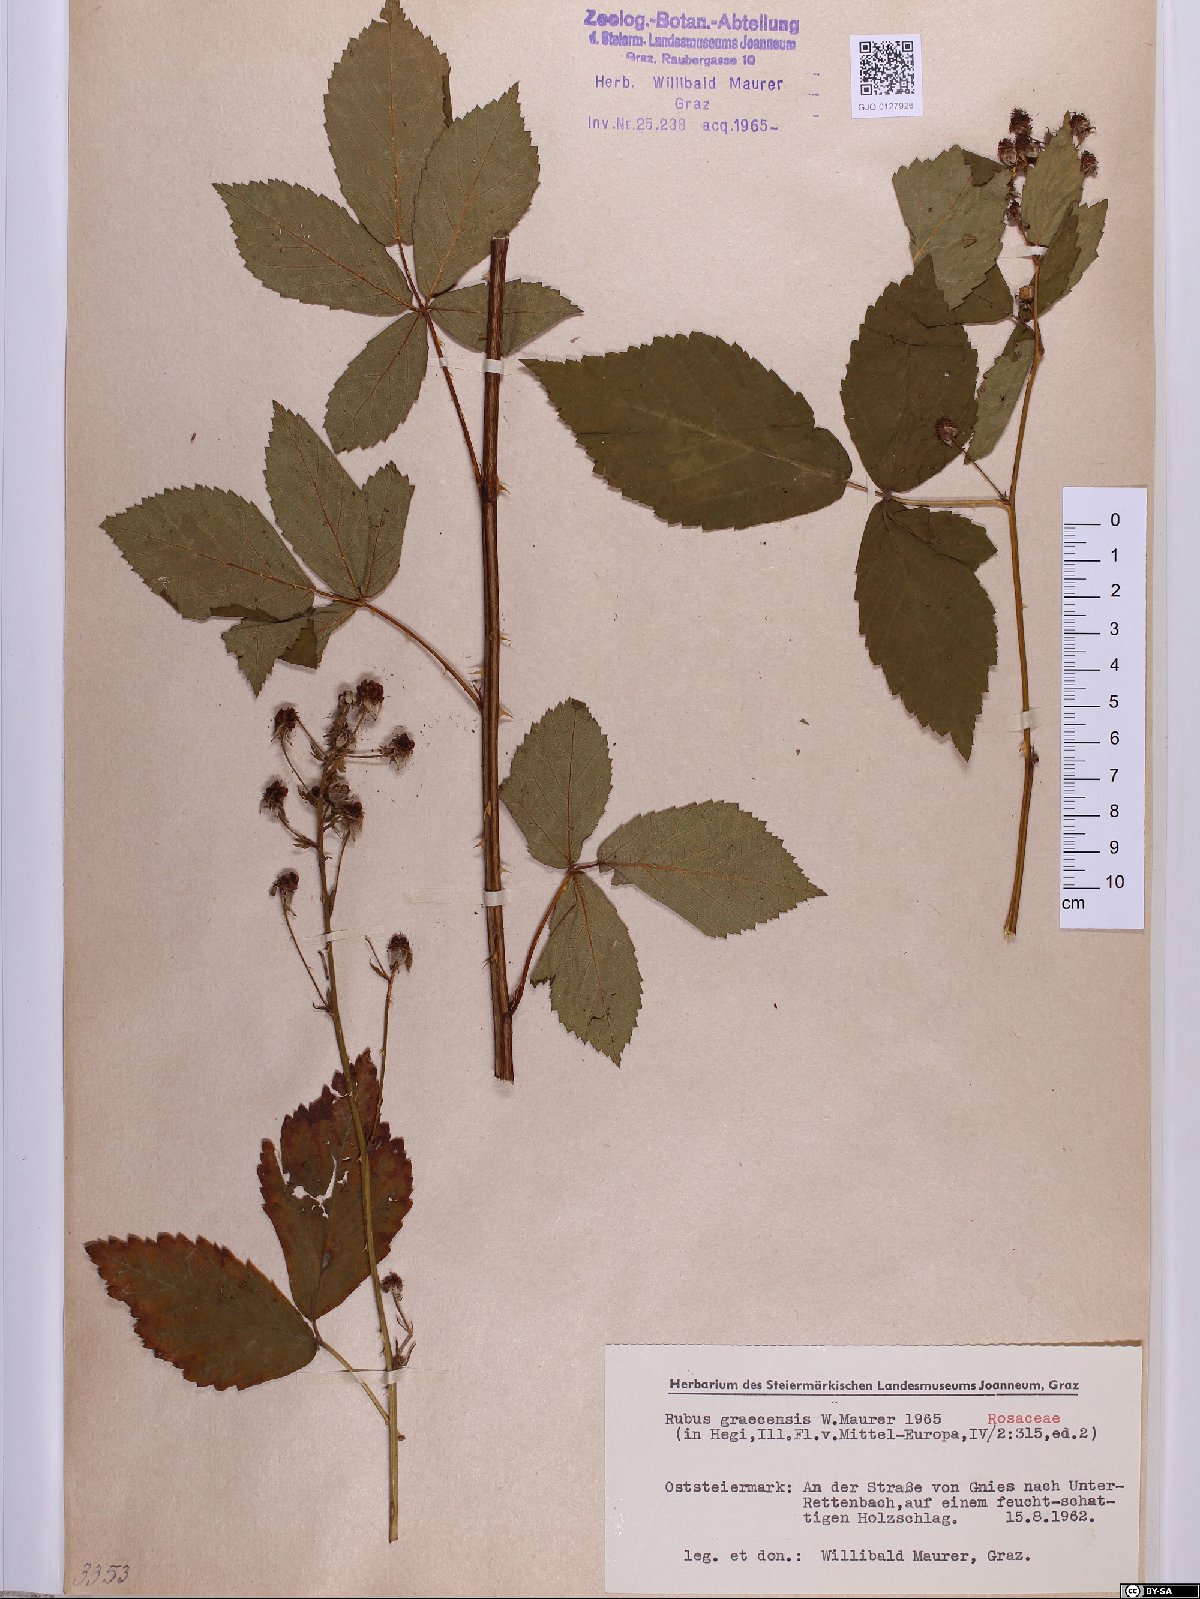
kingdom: Plantae
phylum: Tracheophyta
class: Magnoliopsida
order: Rosales
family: Rosaceae
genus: Rubus
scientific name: Rubus graecensis
